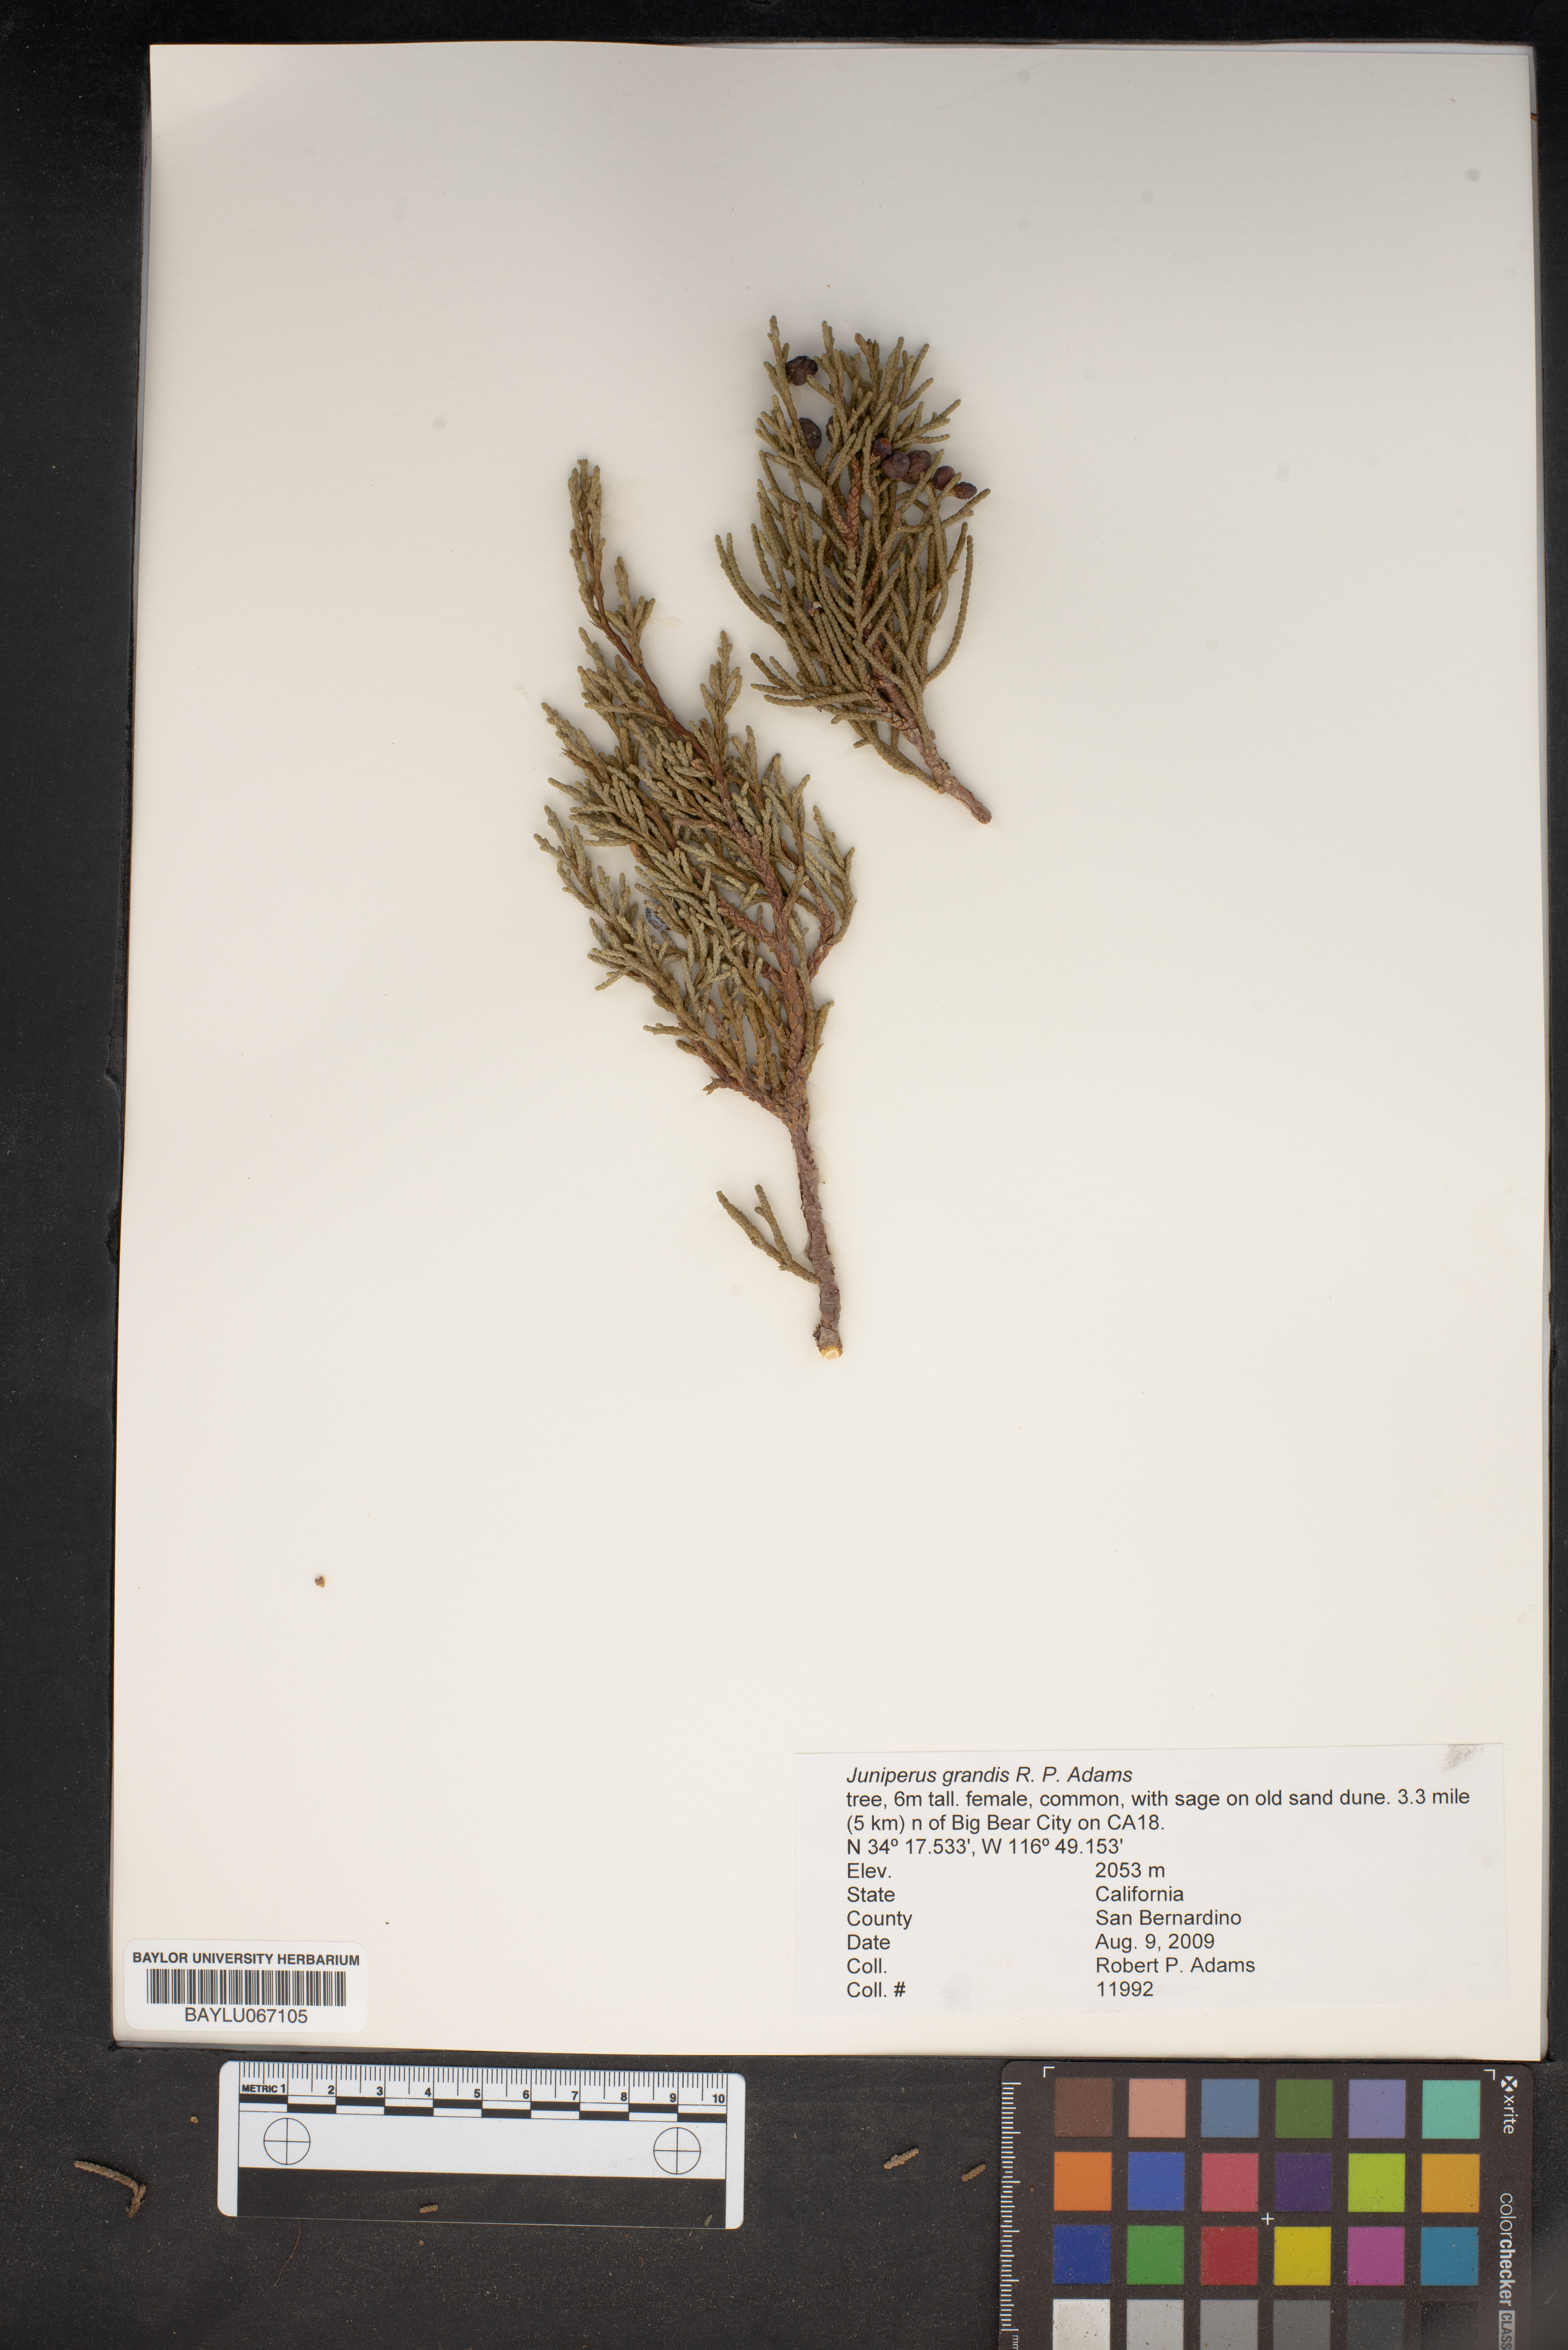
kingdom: Plantae
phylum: Tracheophyta
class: Pinopsida
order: Pinales
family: Cupressaceae
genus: Juniperus
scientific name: Juniperus occidentalis
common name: Western juniper
